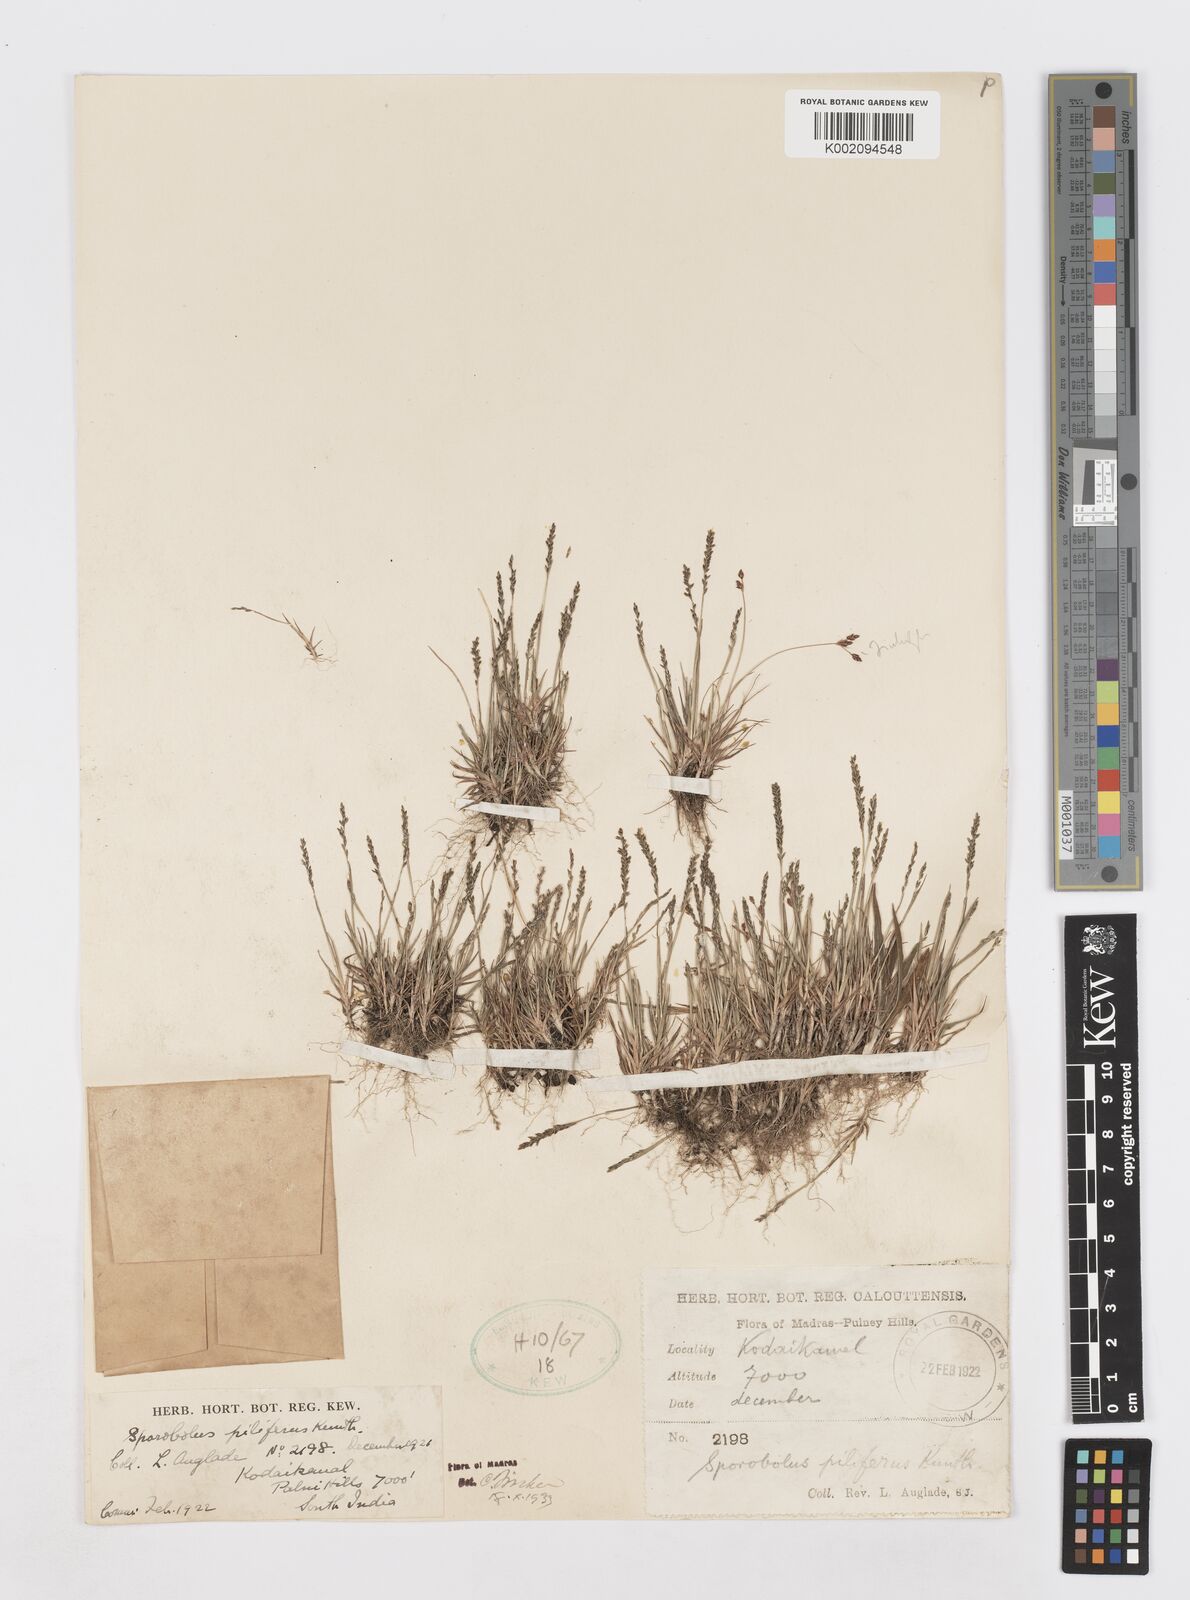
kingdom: Plantae
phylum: Tracheophyta
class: Liliopsida
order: Poales
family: Poaceae
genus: Sporobolus
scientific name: Sporobolus pilifer
